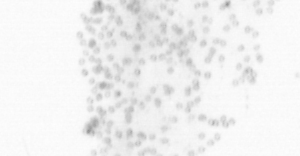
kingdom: Chromista
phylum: Ochrophyta
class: Bacillariophyceae
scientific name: Bacillariophyceae
